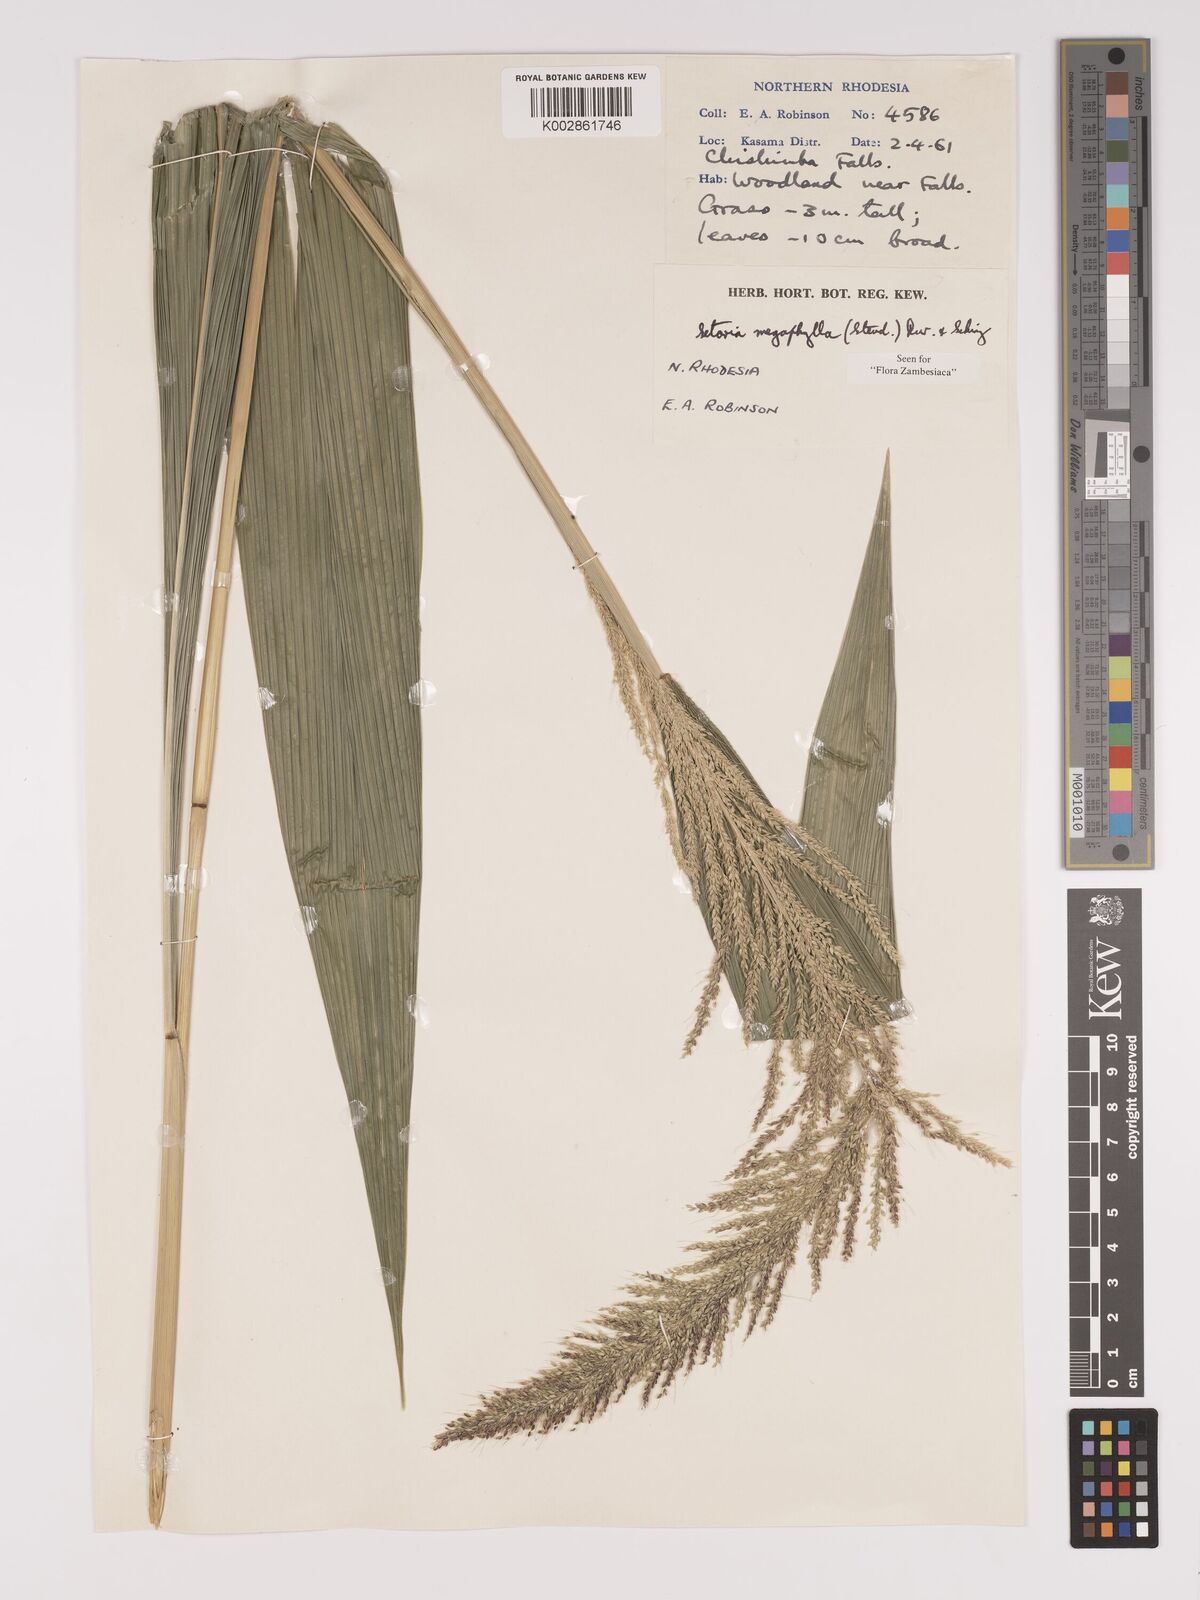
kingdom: Plantae
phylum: Tracheophyta
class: Liliopsida
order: Poales
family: Poaceae
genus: Setaria
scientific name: Setaria megaphylla
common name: Bigleaf bristlegrass
